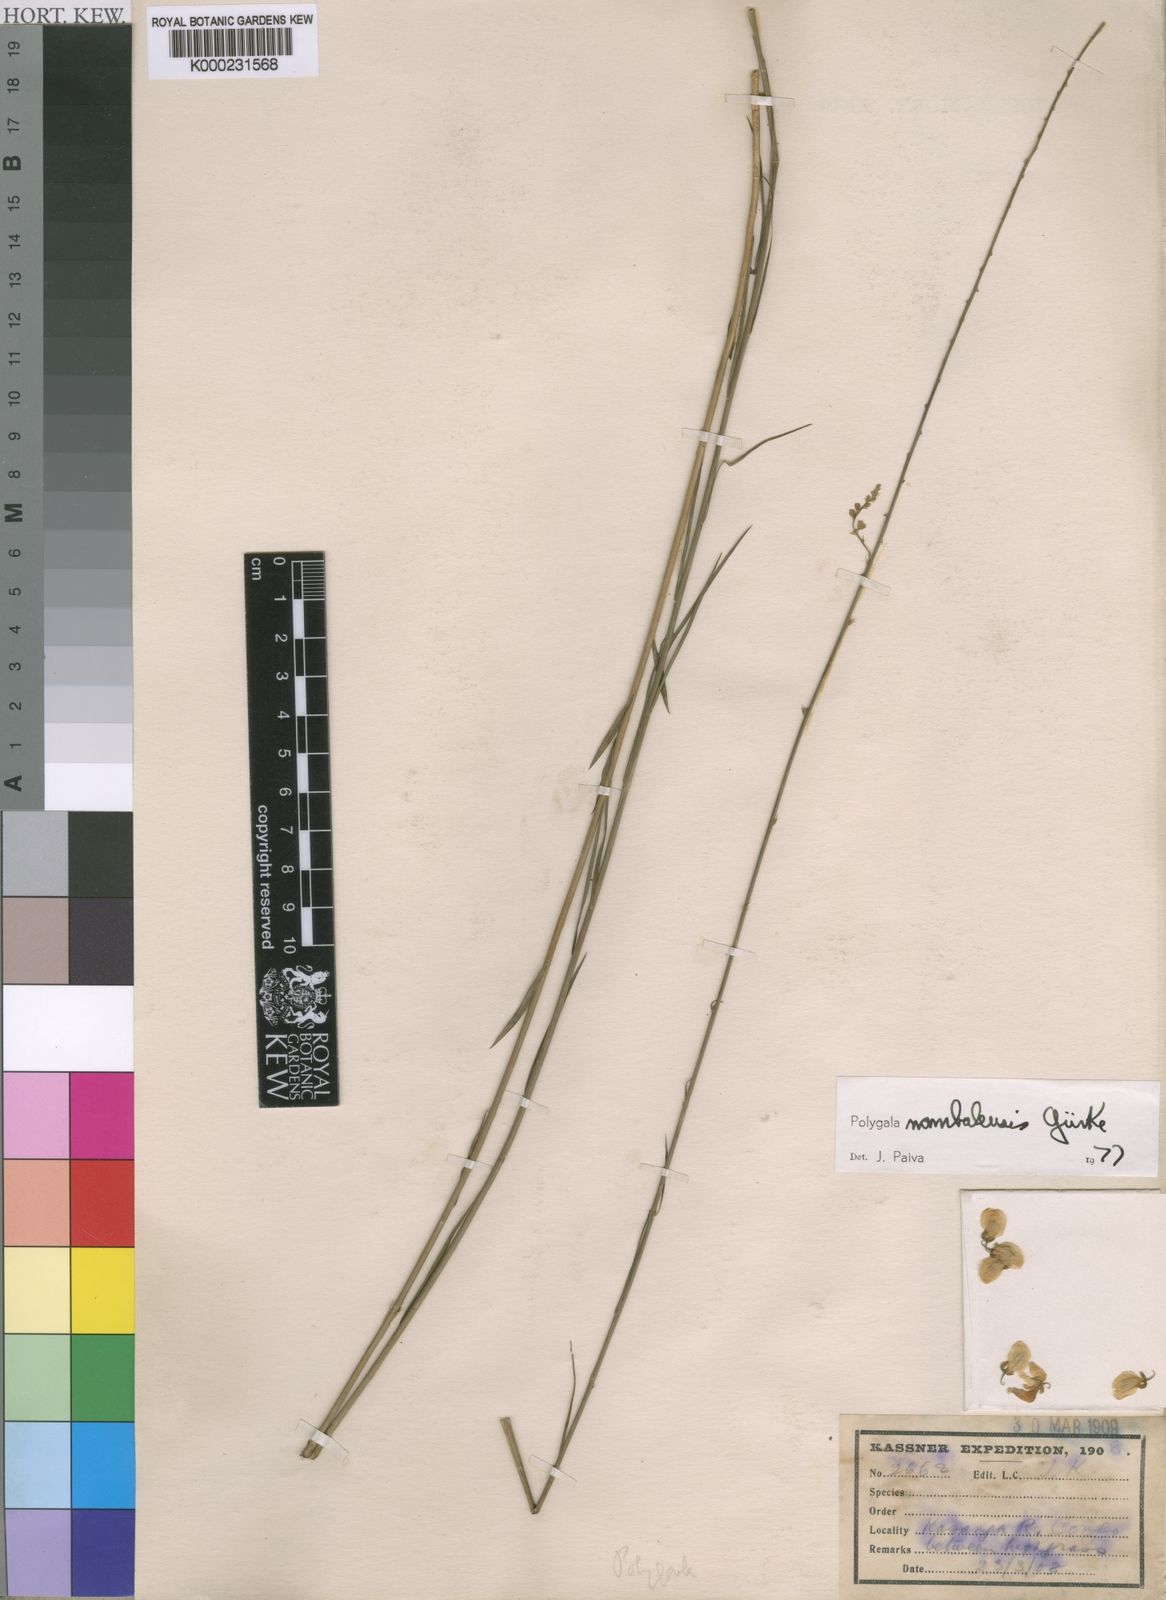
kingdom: Plantae
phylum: Tracheophyta
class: Magnoliopsida
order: Fabales
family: Polygalaceae
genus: Polygala
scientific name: Polygala
